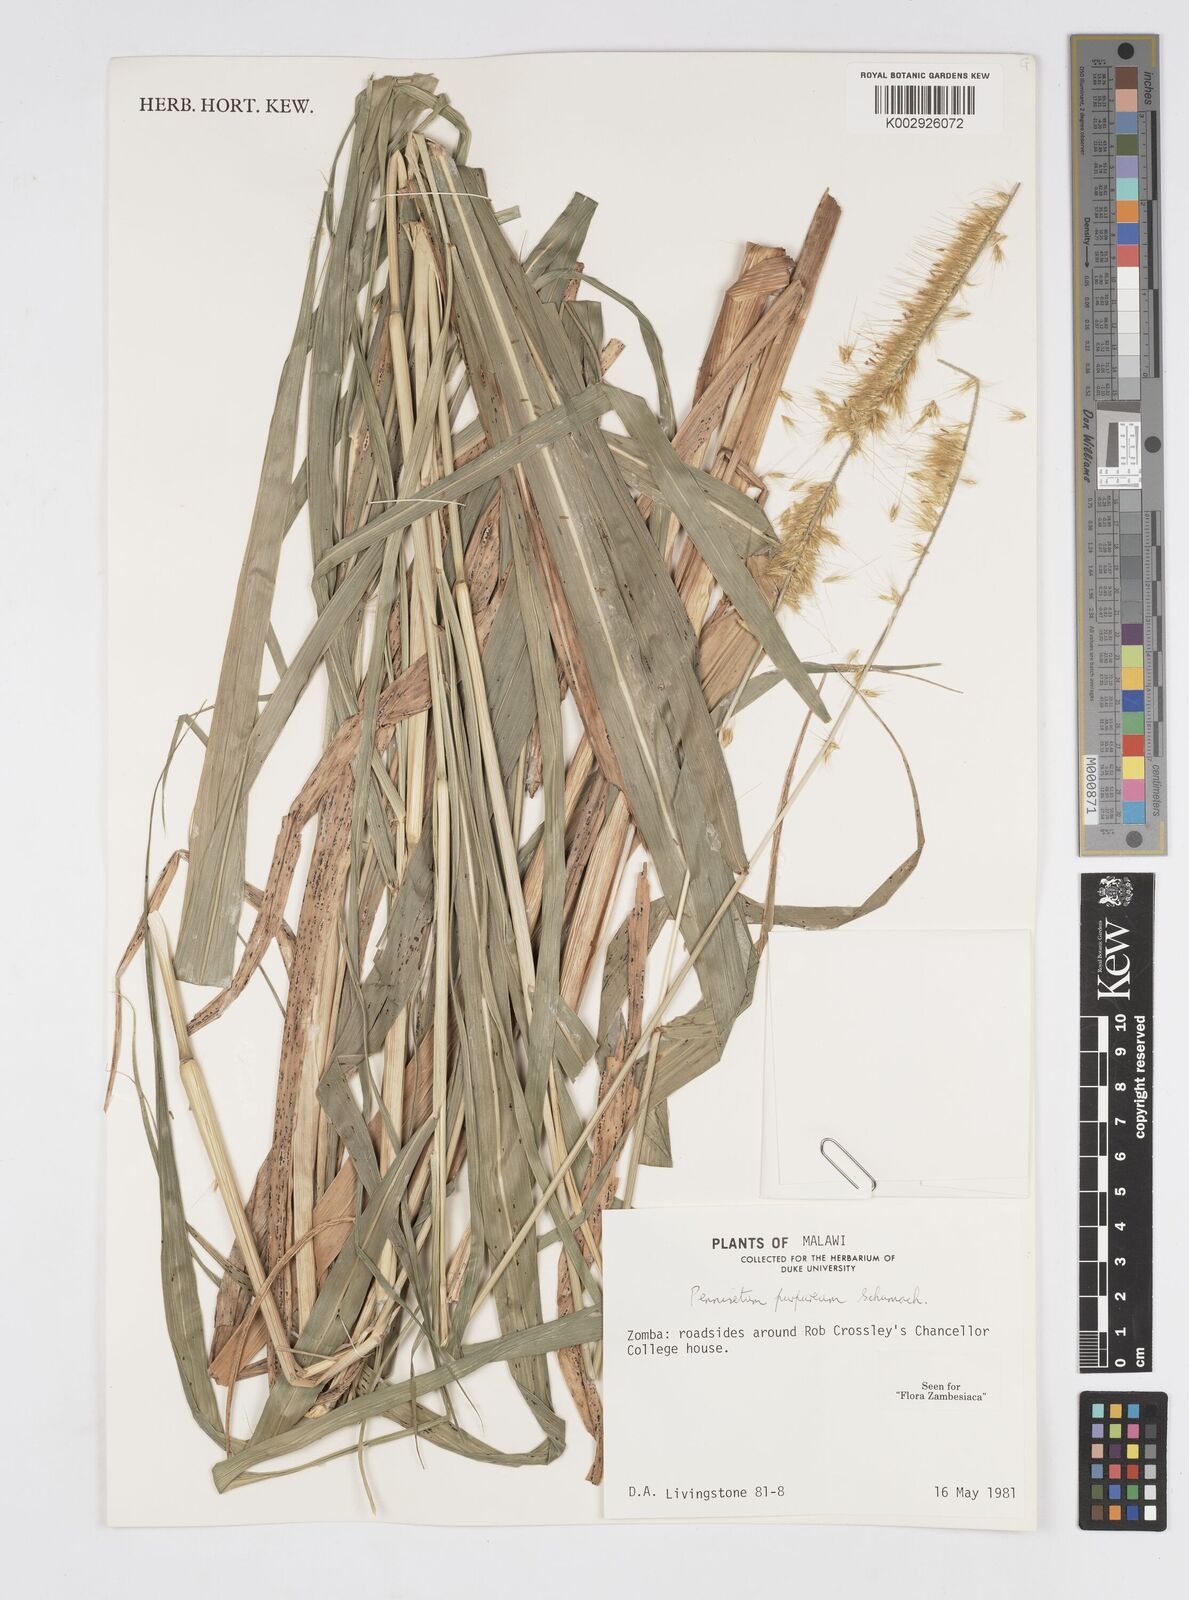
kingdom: Plantae
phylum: Tracheophyta
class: Liliopsida
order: Poales
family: Poaceae
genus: Cenchrus
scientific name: Cenchrus purpureus
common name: Elephant grass
